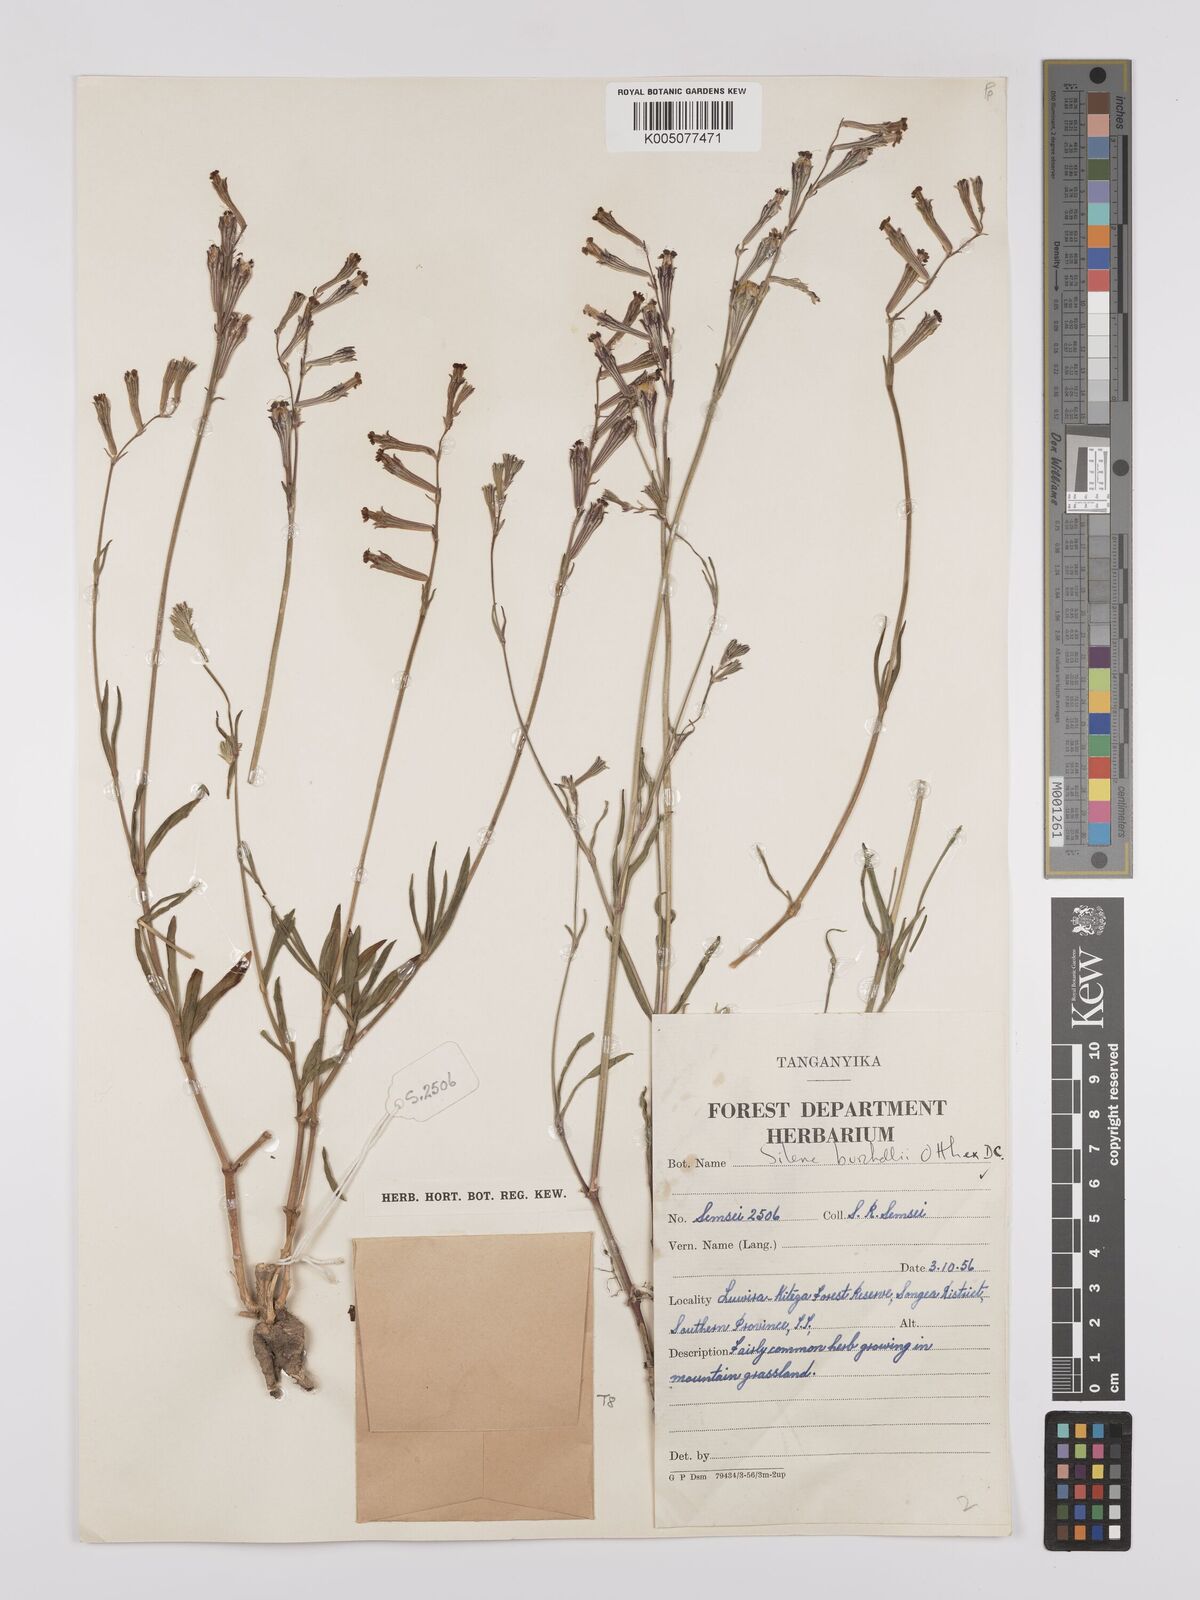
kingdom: Plantae
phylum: Tracheophyta
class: Magnoliopsida
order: Caryophyllales
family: Caryophyllaceae
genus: Silene
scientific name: Silene burchellii
